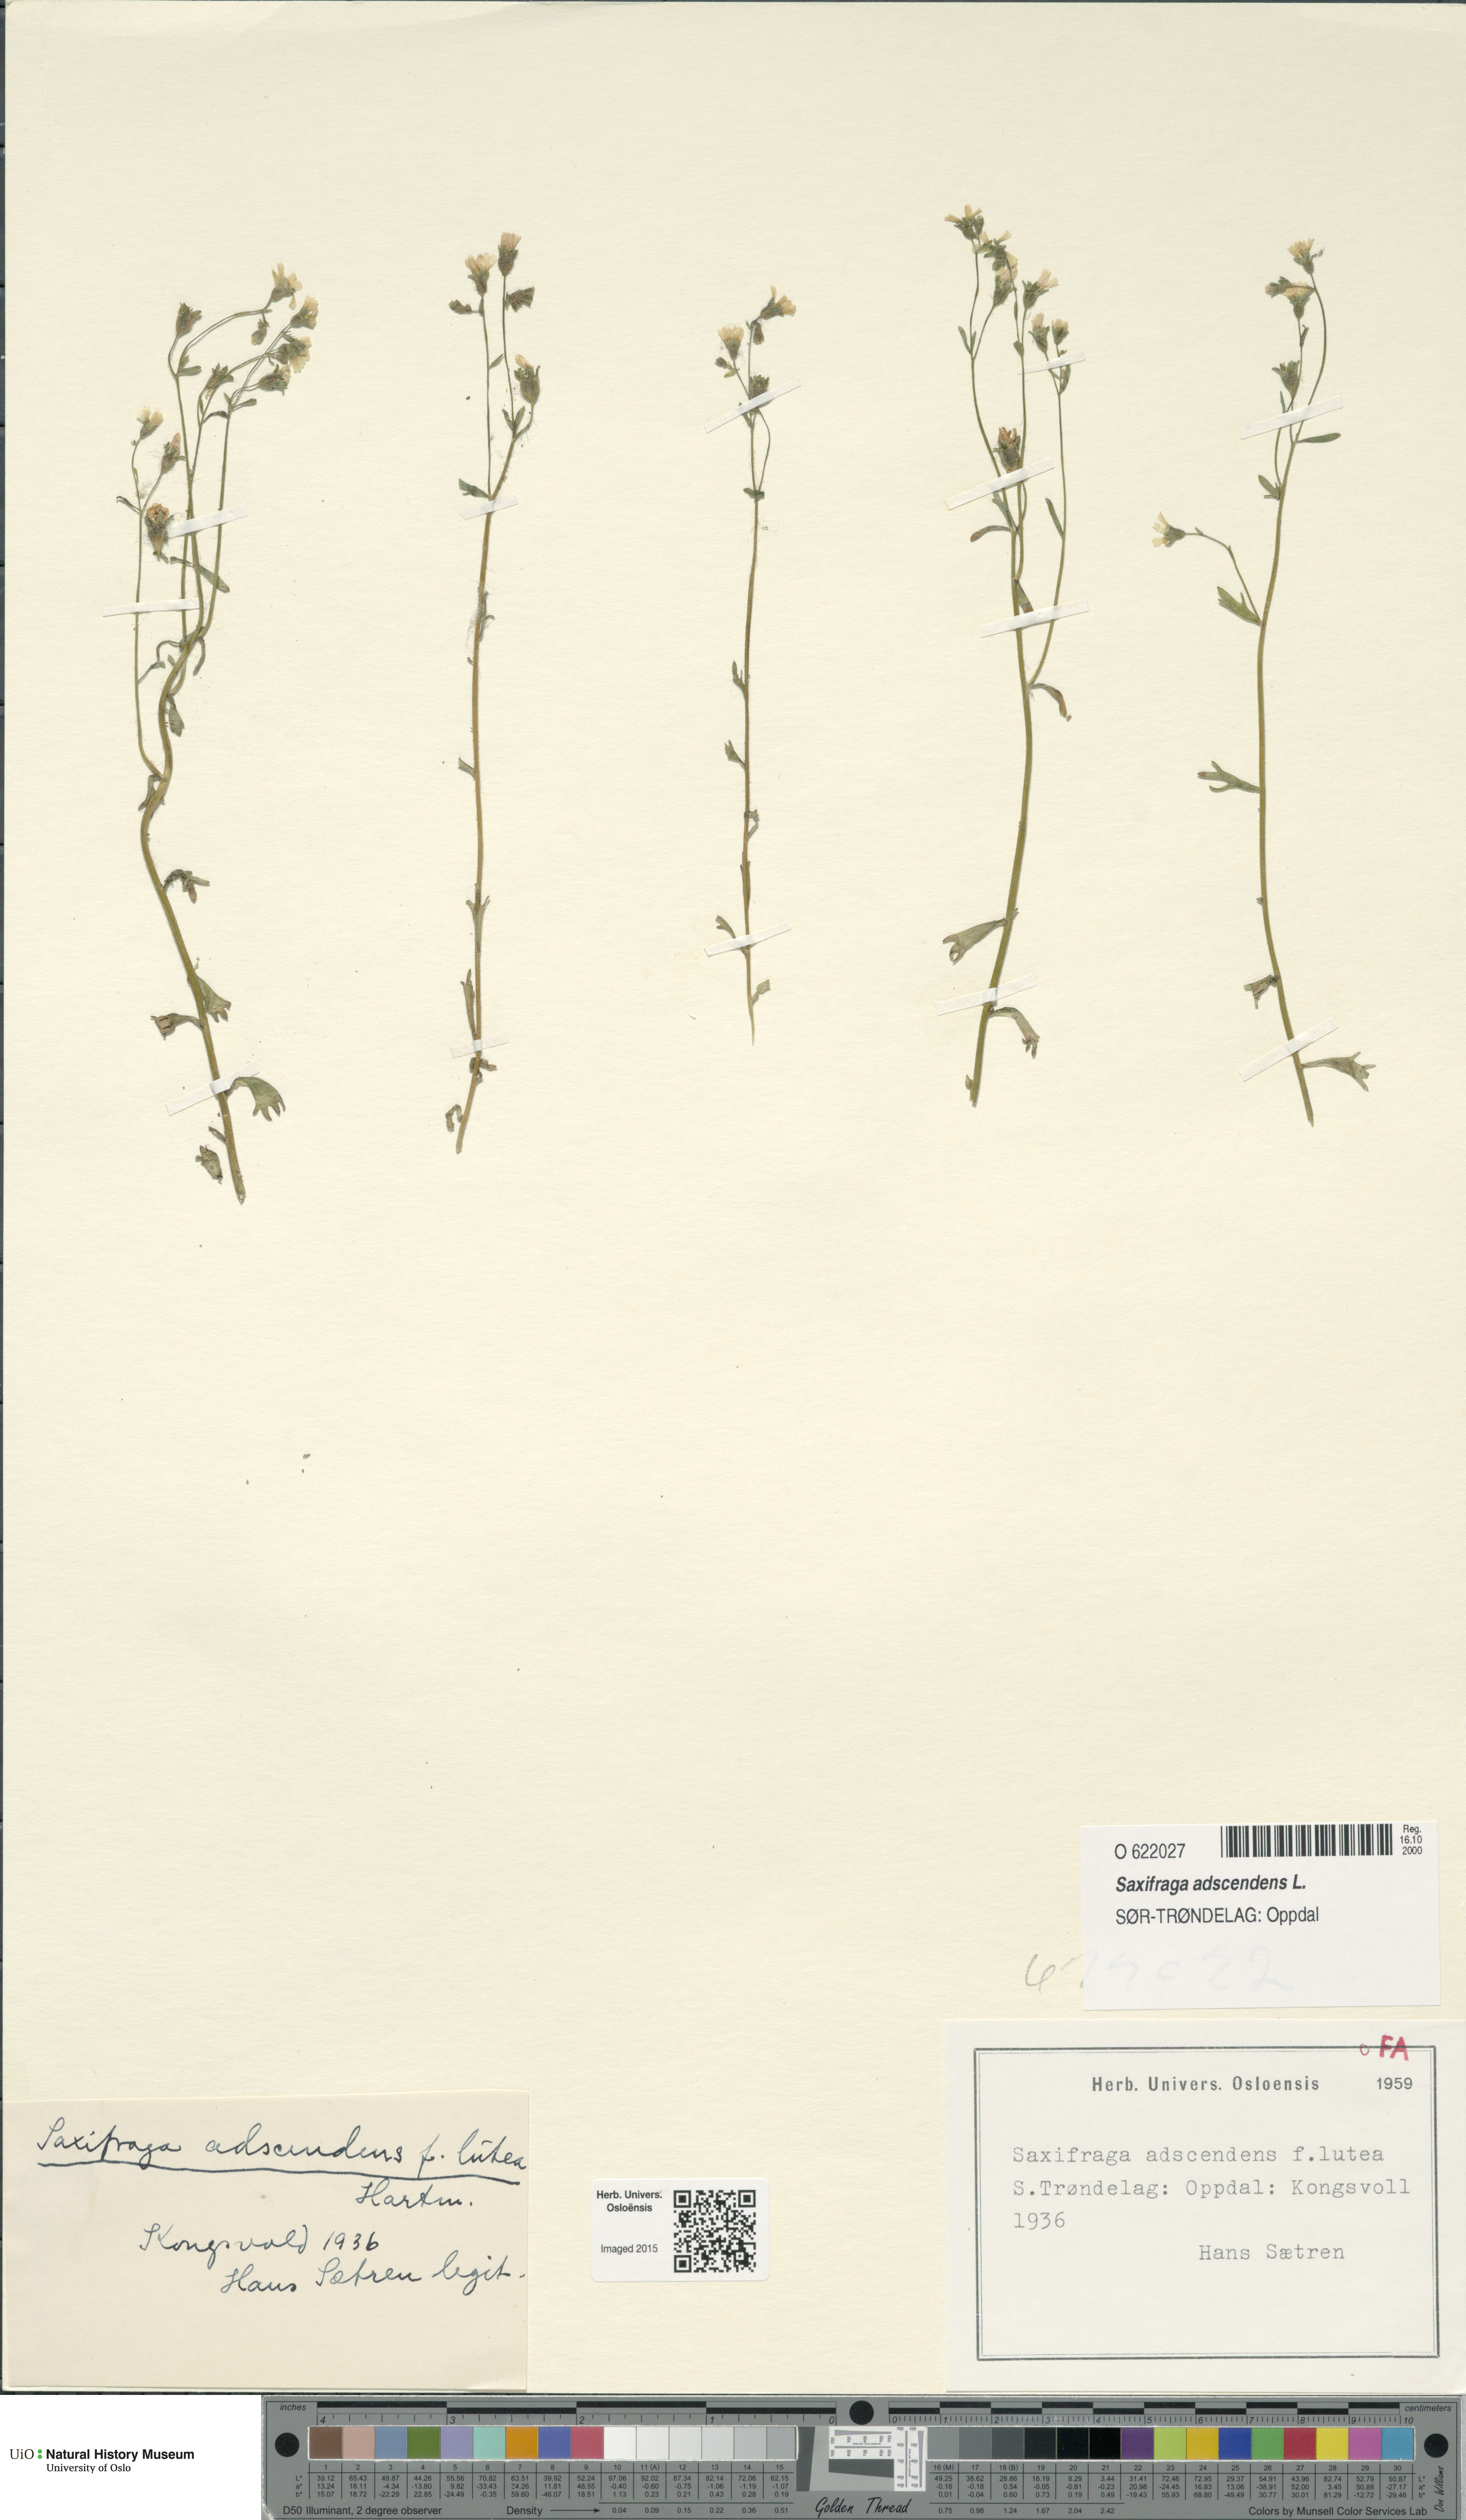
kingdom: Plantae
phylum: Tracheophyta
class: Magnoliopsida
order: Saxifragales
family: Saxifragaceae
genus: Saxifraga
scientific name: Saxifraga adscendens
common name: Ascending saxifrage
